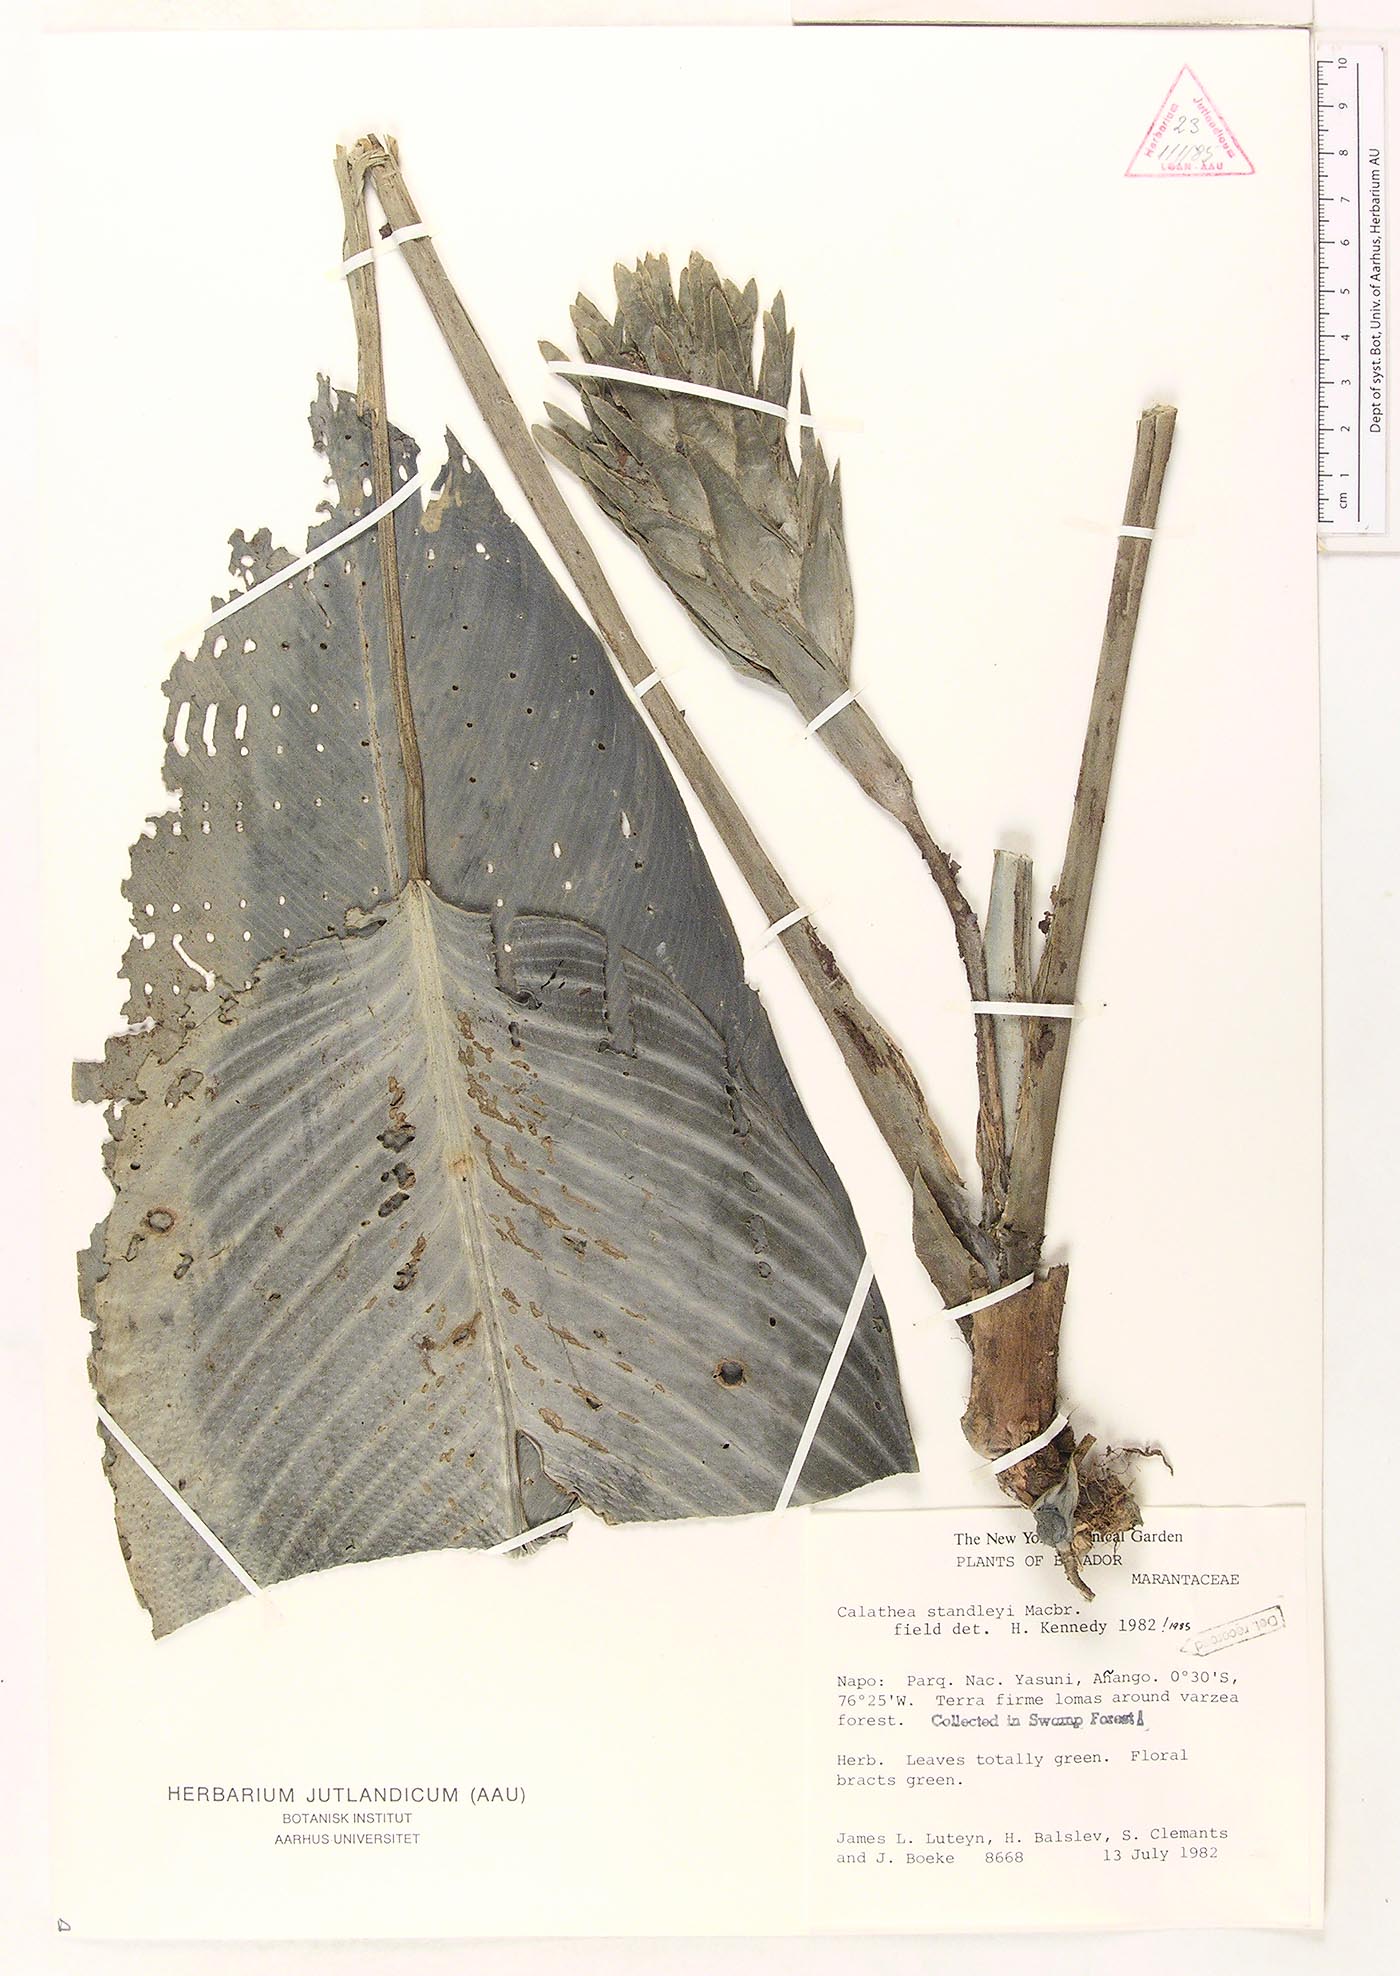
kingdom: Plantae
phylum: Tracheophyta
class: Liliopsida
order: Zingiberales
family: Marantaceae
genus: Goeppertia
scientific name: Goeppertia standleyi
